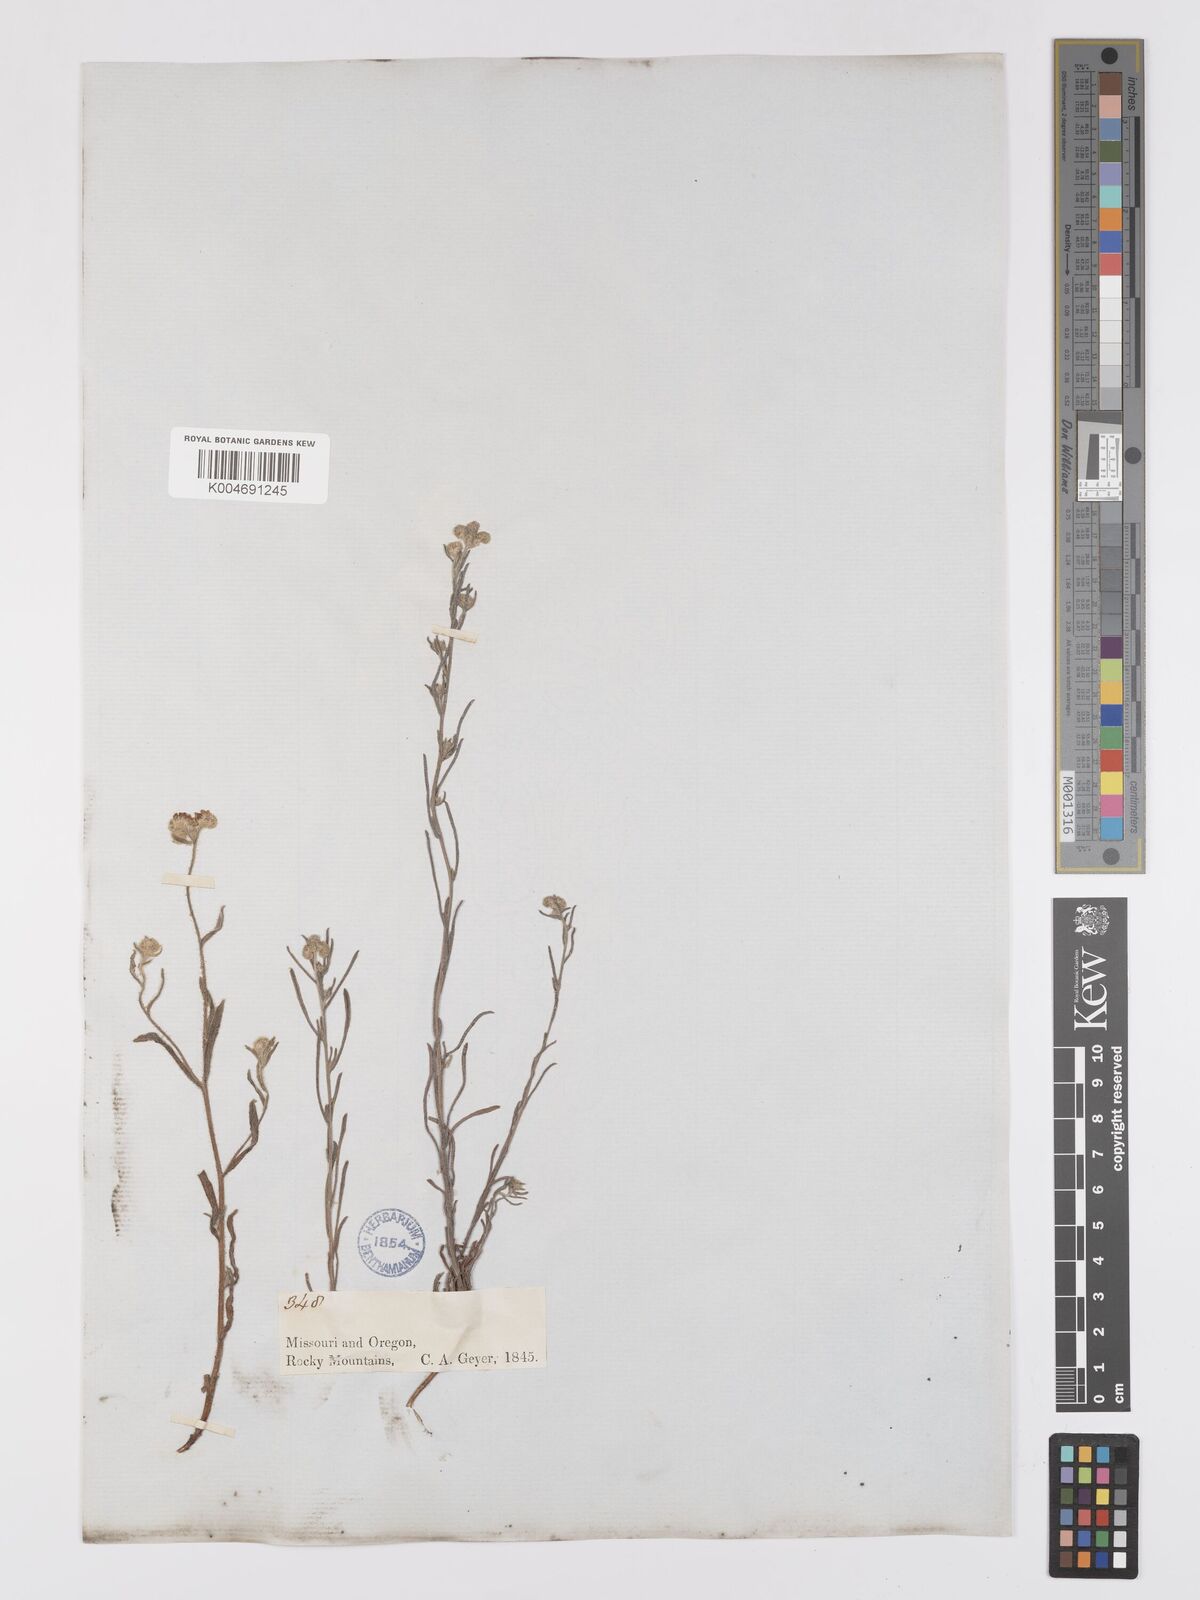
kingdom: Plantae
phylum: Tracheophyta
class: Magnoliopsida
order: Boraginales
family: Boraginaceae
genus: Cryptantha
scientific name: Cryptantha flaccida
